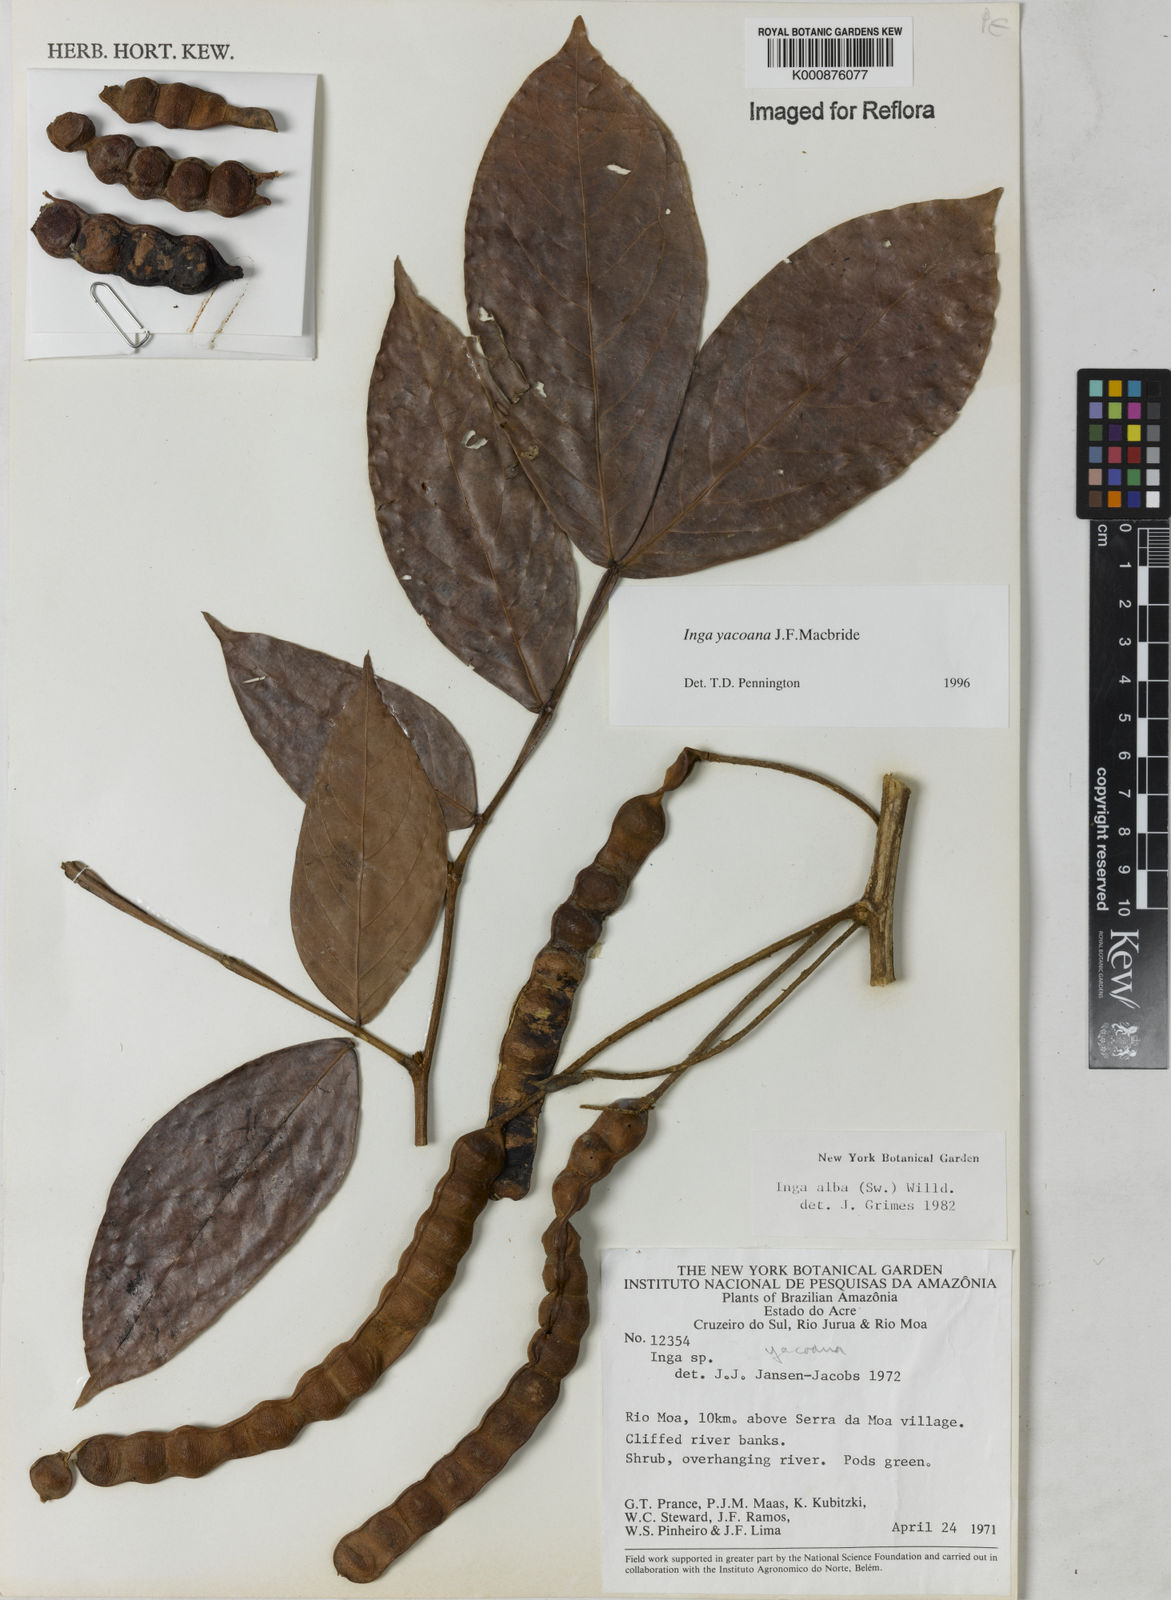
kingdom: Plantae
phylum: Tracheophyta
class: Magnoliopsida
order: Fabales
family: Fabaceae
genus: Inga
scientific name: Inga yacoana
